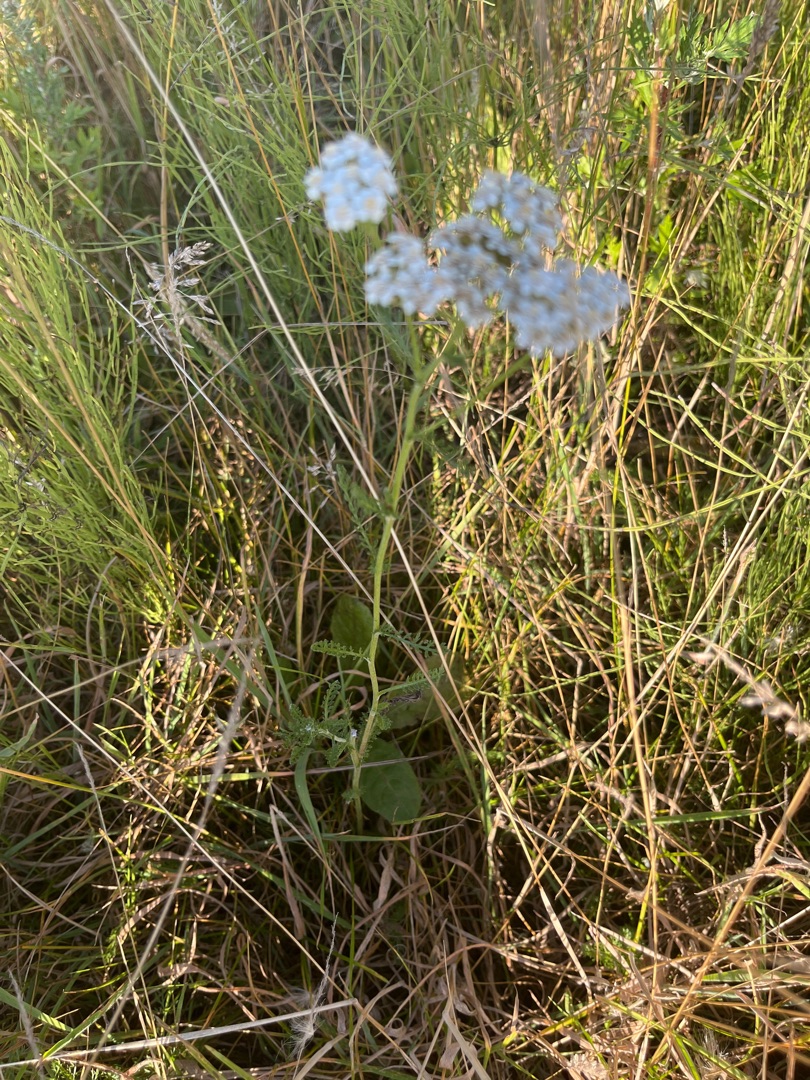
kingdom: Plantae
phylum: Tracheophyta
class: Magnoliopsida
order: Asterales
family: Asteraceae
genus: Achillea
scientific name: Achillea millefolium
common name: Almindelig røllike
